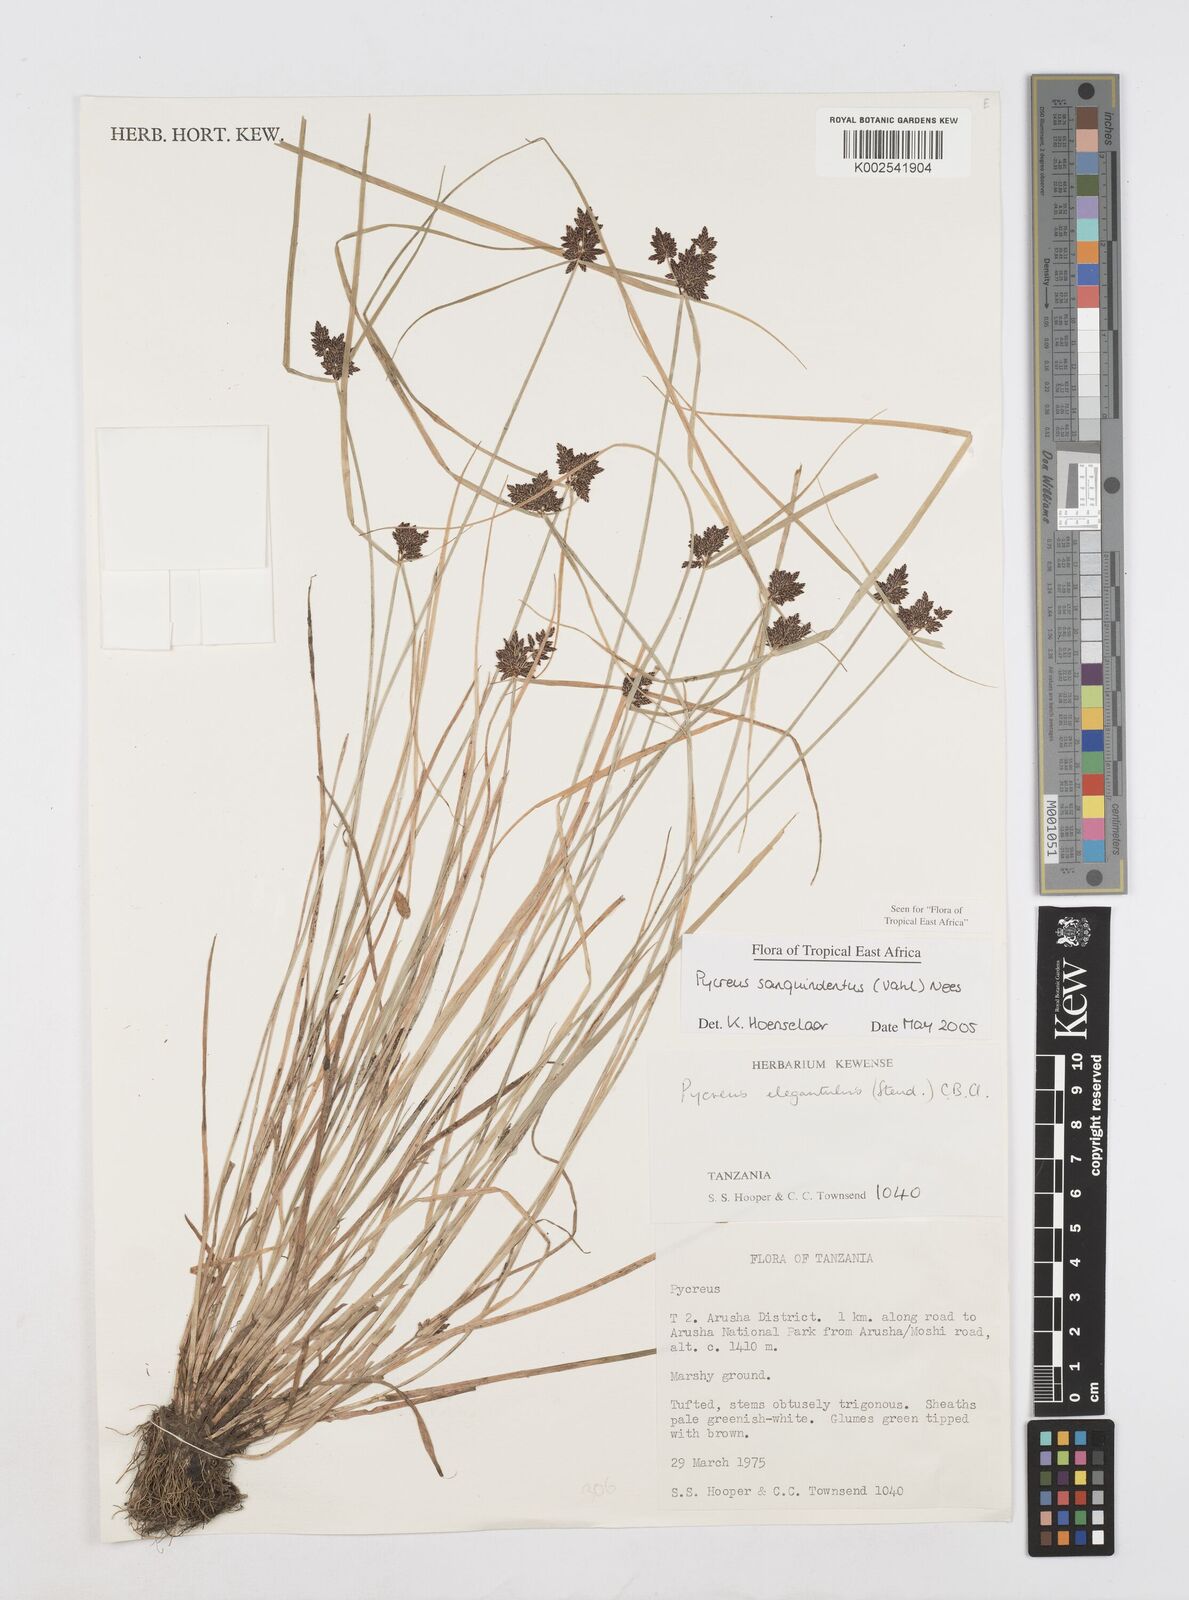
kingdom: Plantae
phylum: Tracheophyta
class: Liliopsida
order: Poales
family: Cyperaceae
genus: Cyperus
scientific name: Cyperus sanguinolentus
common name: Purpleglume flatsedge
